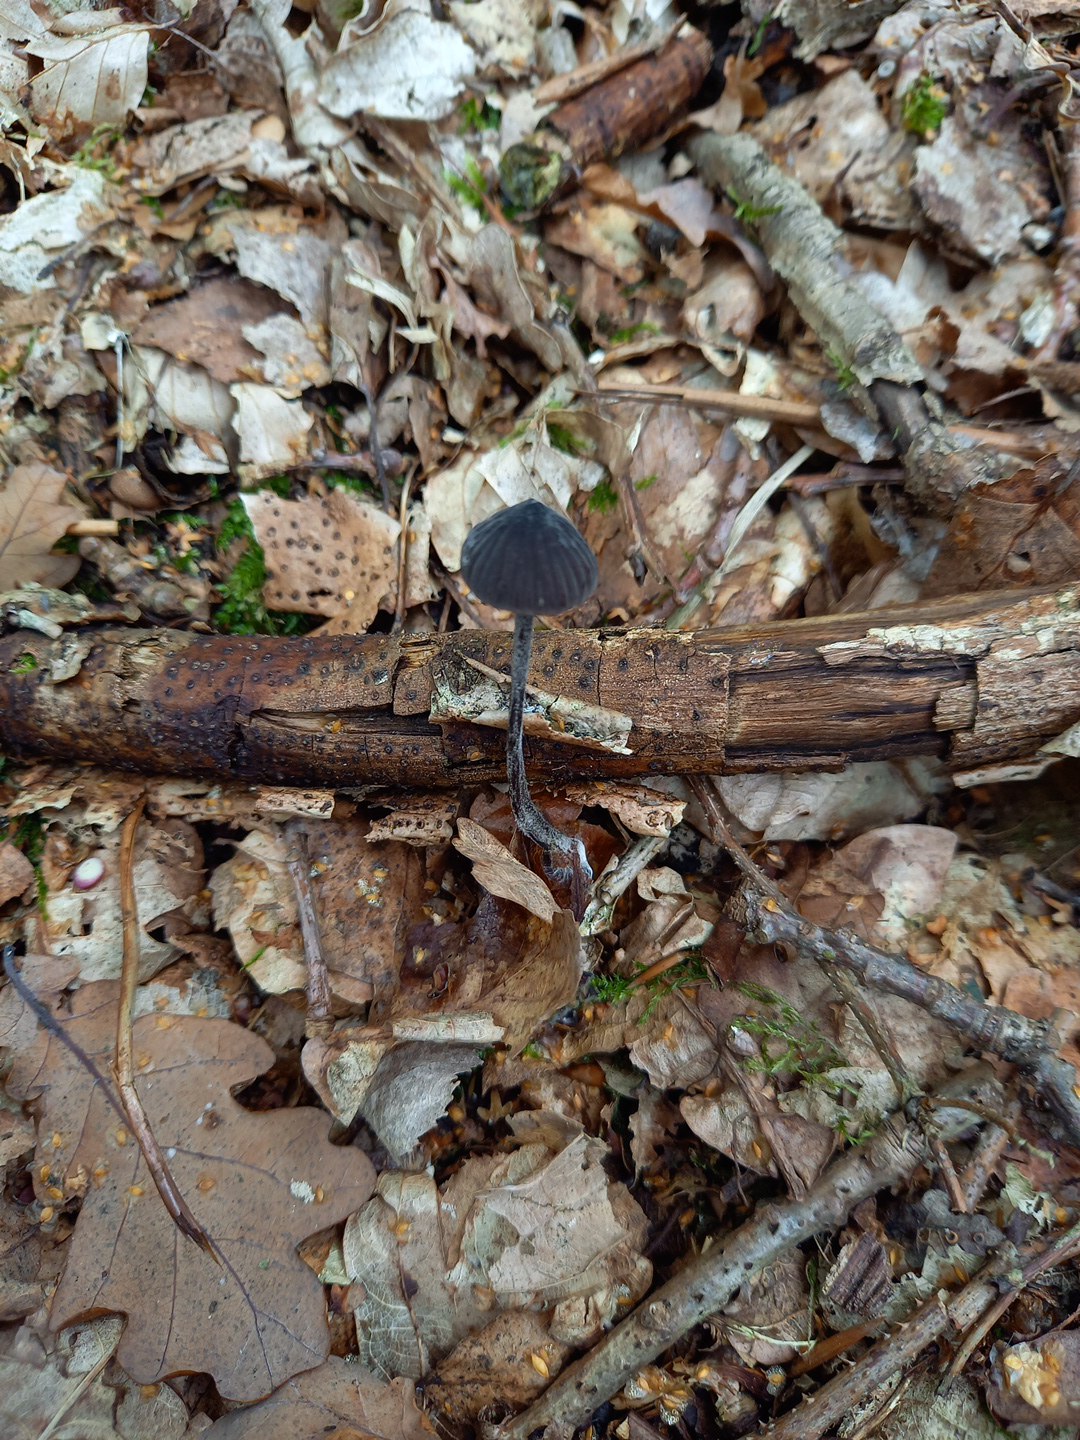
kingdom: Fungi
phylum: Basidiomycota
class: Agaricomycetes
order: Agaricales
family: Mycenaceae
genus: Mycena
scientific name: Mycena galopus
